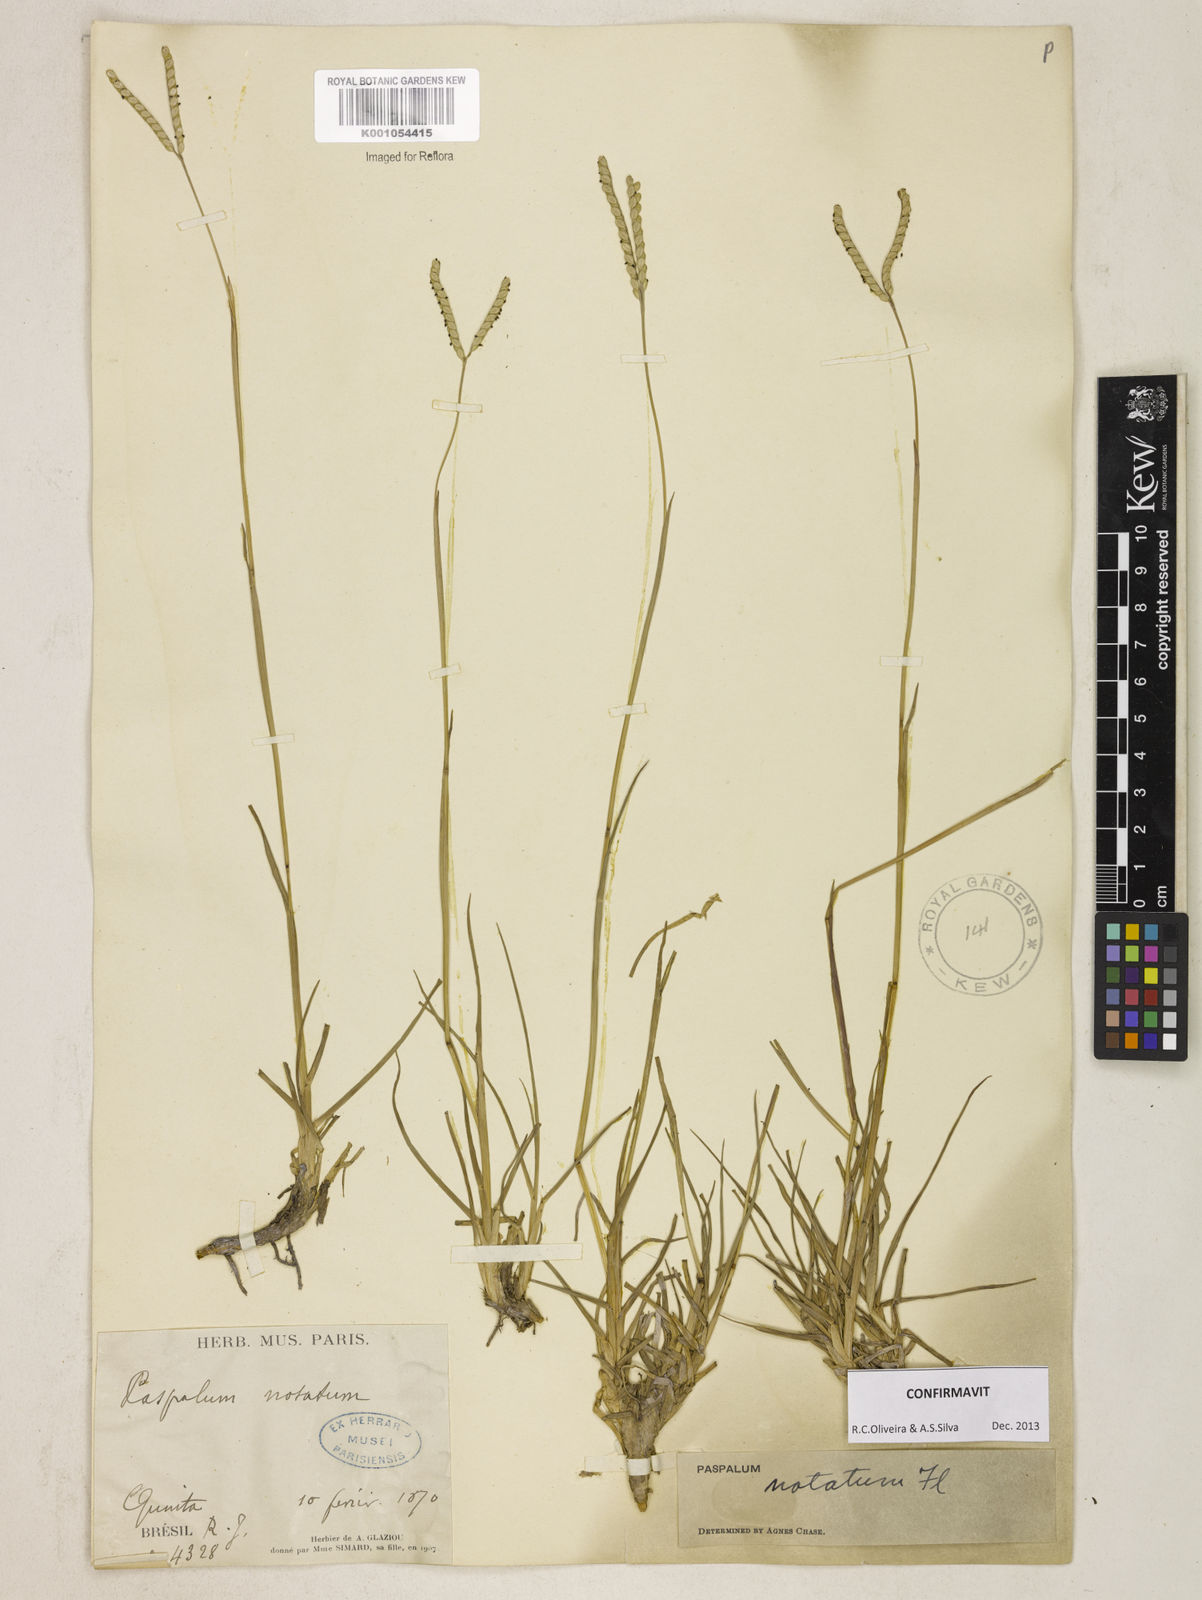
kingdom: Plantae
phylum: Tracheophyta
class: Liliopsida
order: Poales
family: Poaceae
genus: Paspalum
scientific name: Paspalum
